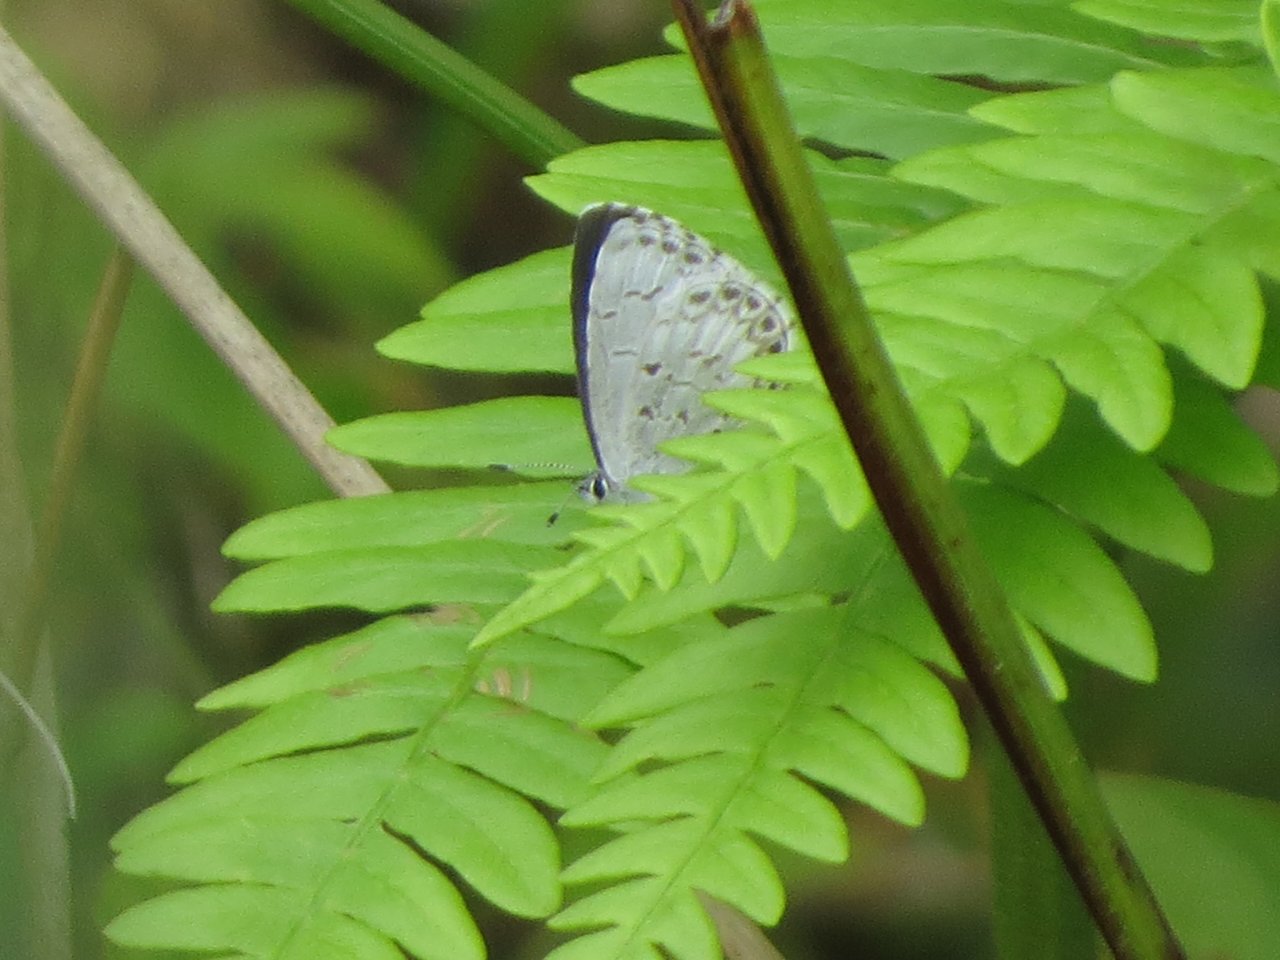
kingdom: Animalia
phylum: Arthropoda
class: Insecta
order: Lepidoptera
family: Lycaenidae
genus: Celastrina
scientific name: Celastrina lucia
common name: Northern Spring Azure
